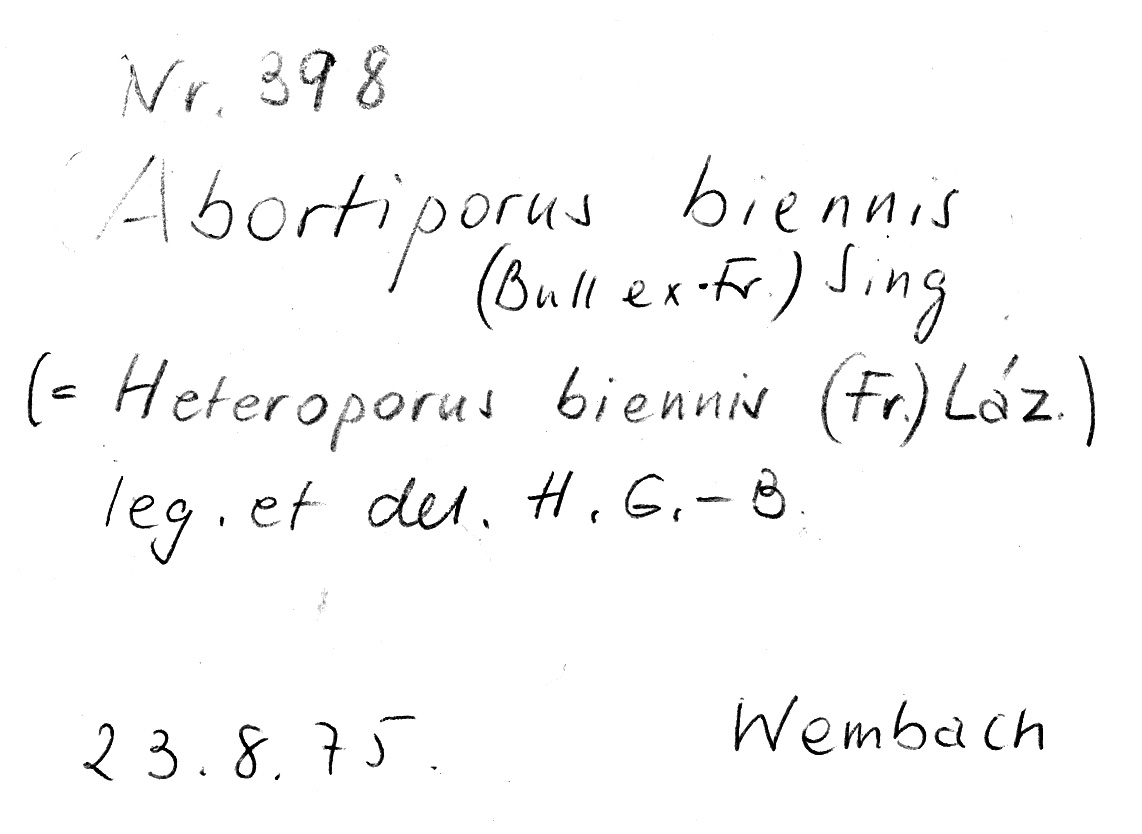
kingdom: Fungi
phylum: Basidiomycota
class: Agaricomycetes
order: Polyporales
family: Podoscyphaceae
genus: Abortiporus
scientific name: Abortiporus biennis
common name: Blushing rosette
